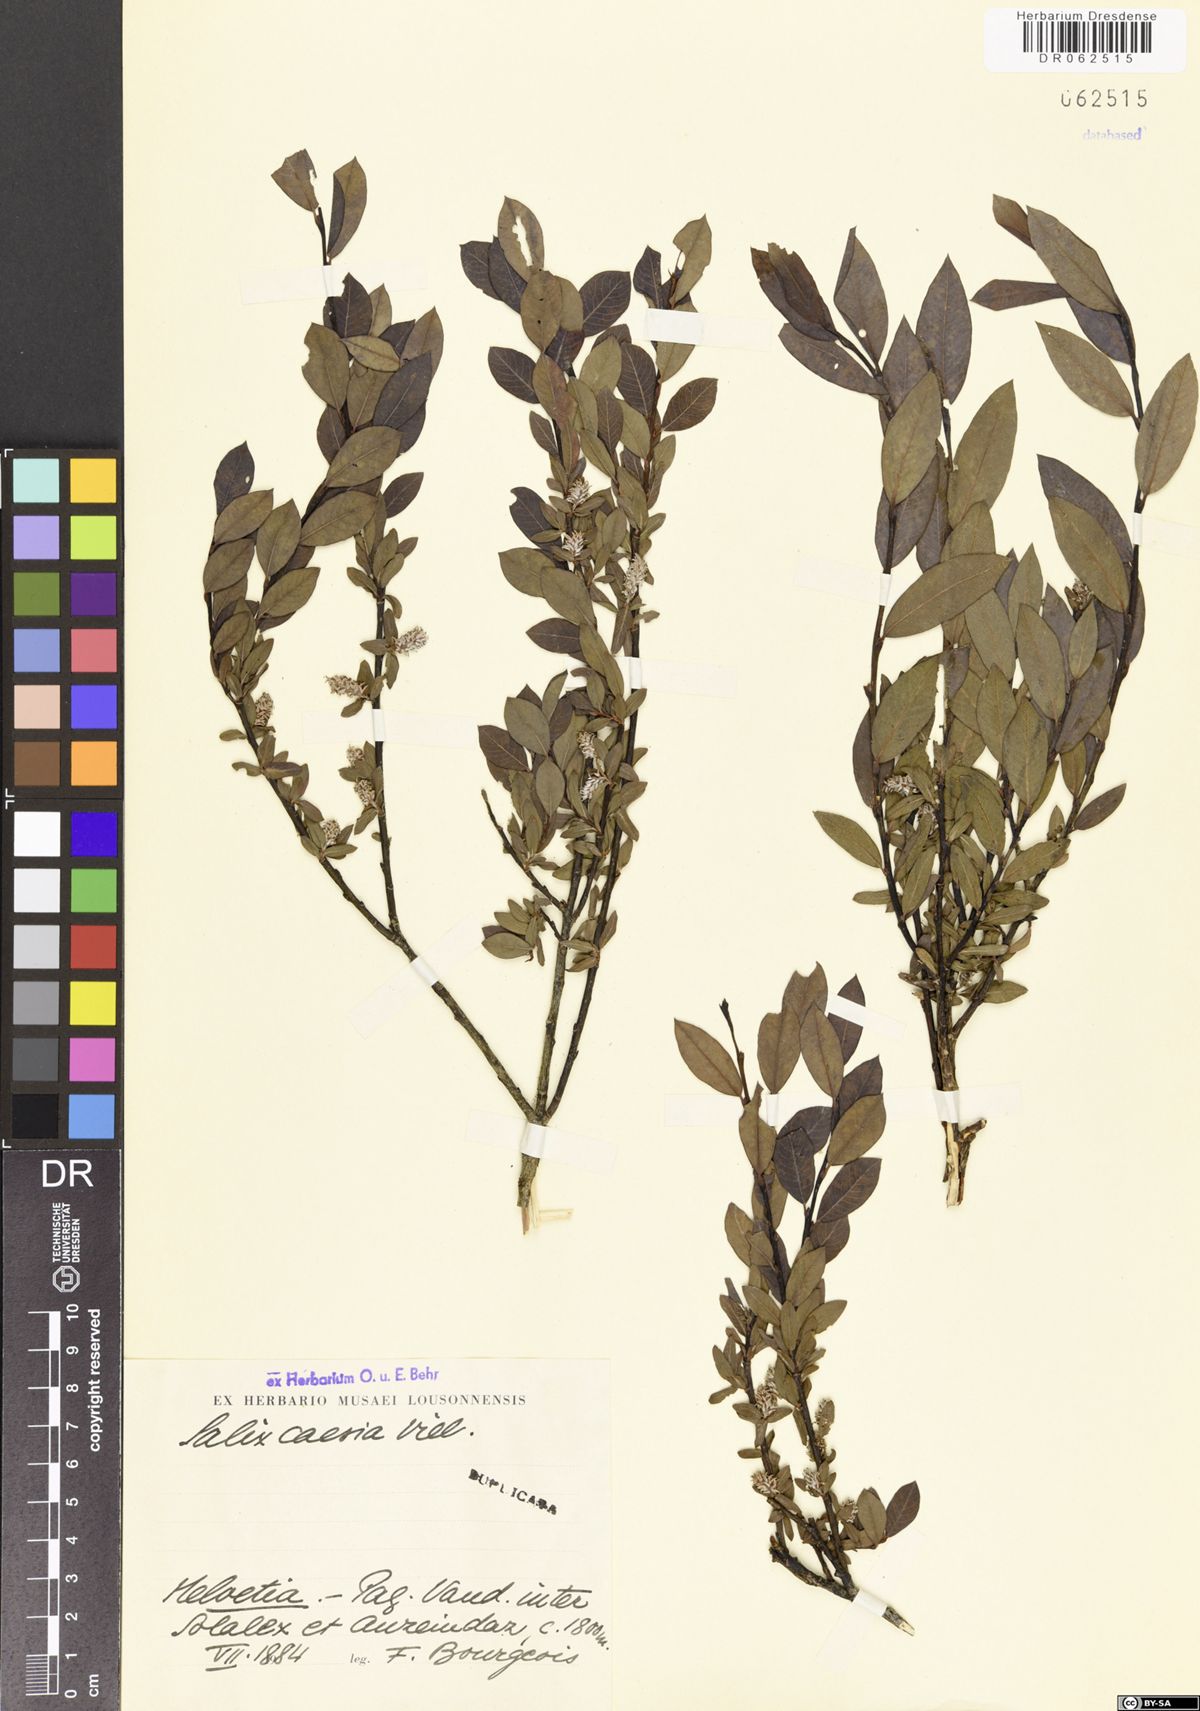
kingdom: Plantae
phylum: Tracheophyta
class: Magnoliopsida
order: Malpighiales
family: Salicaceae
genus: Salix
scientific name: Salix caesia
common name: Blue willow
